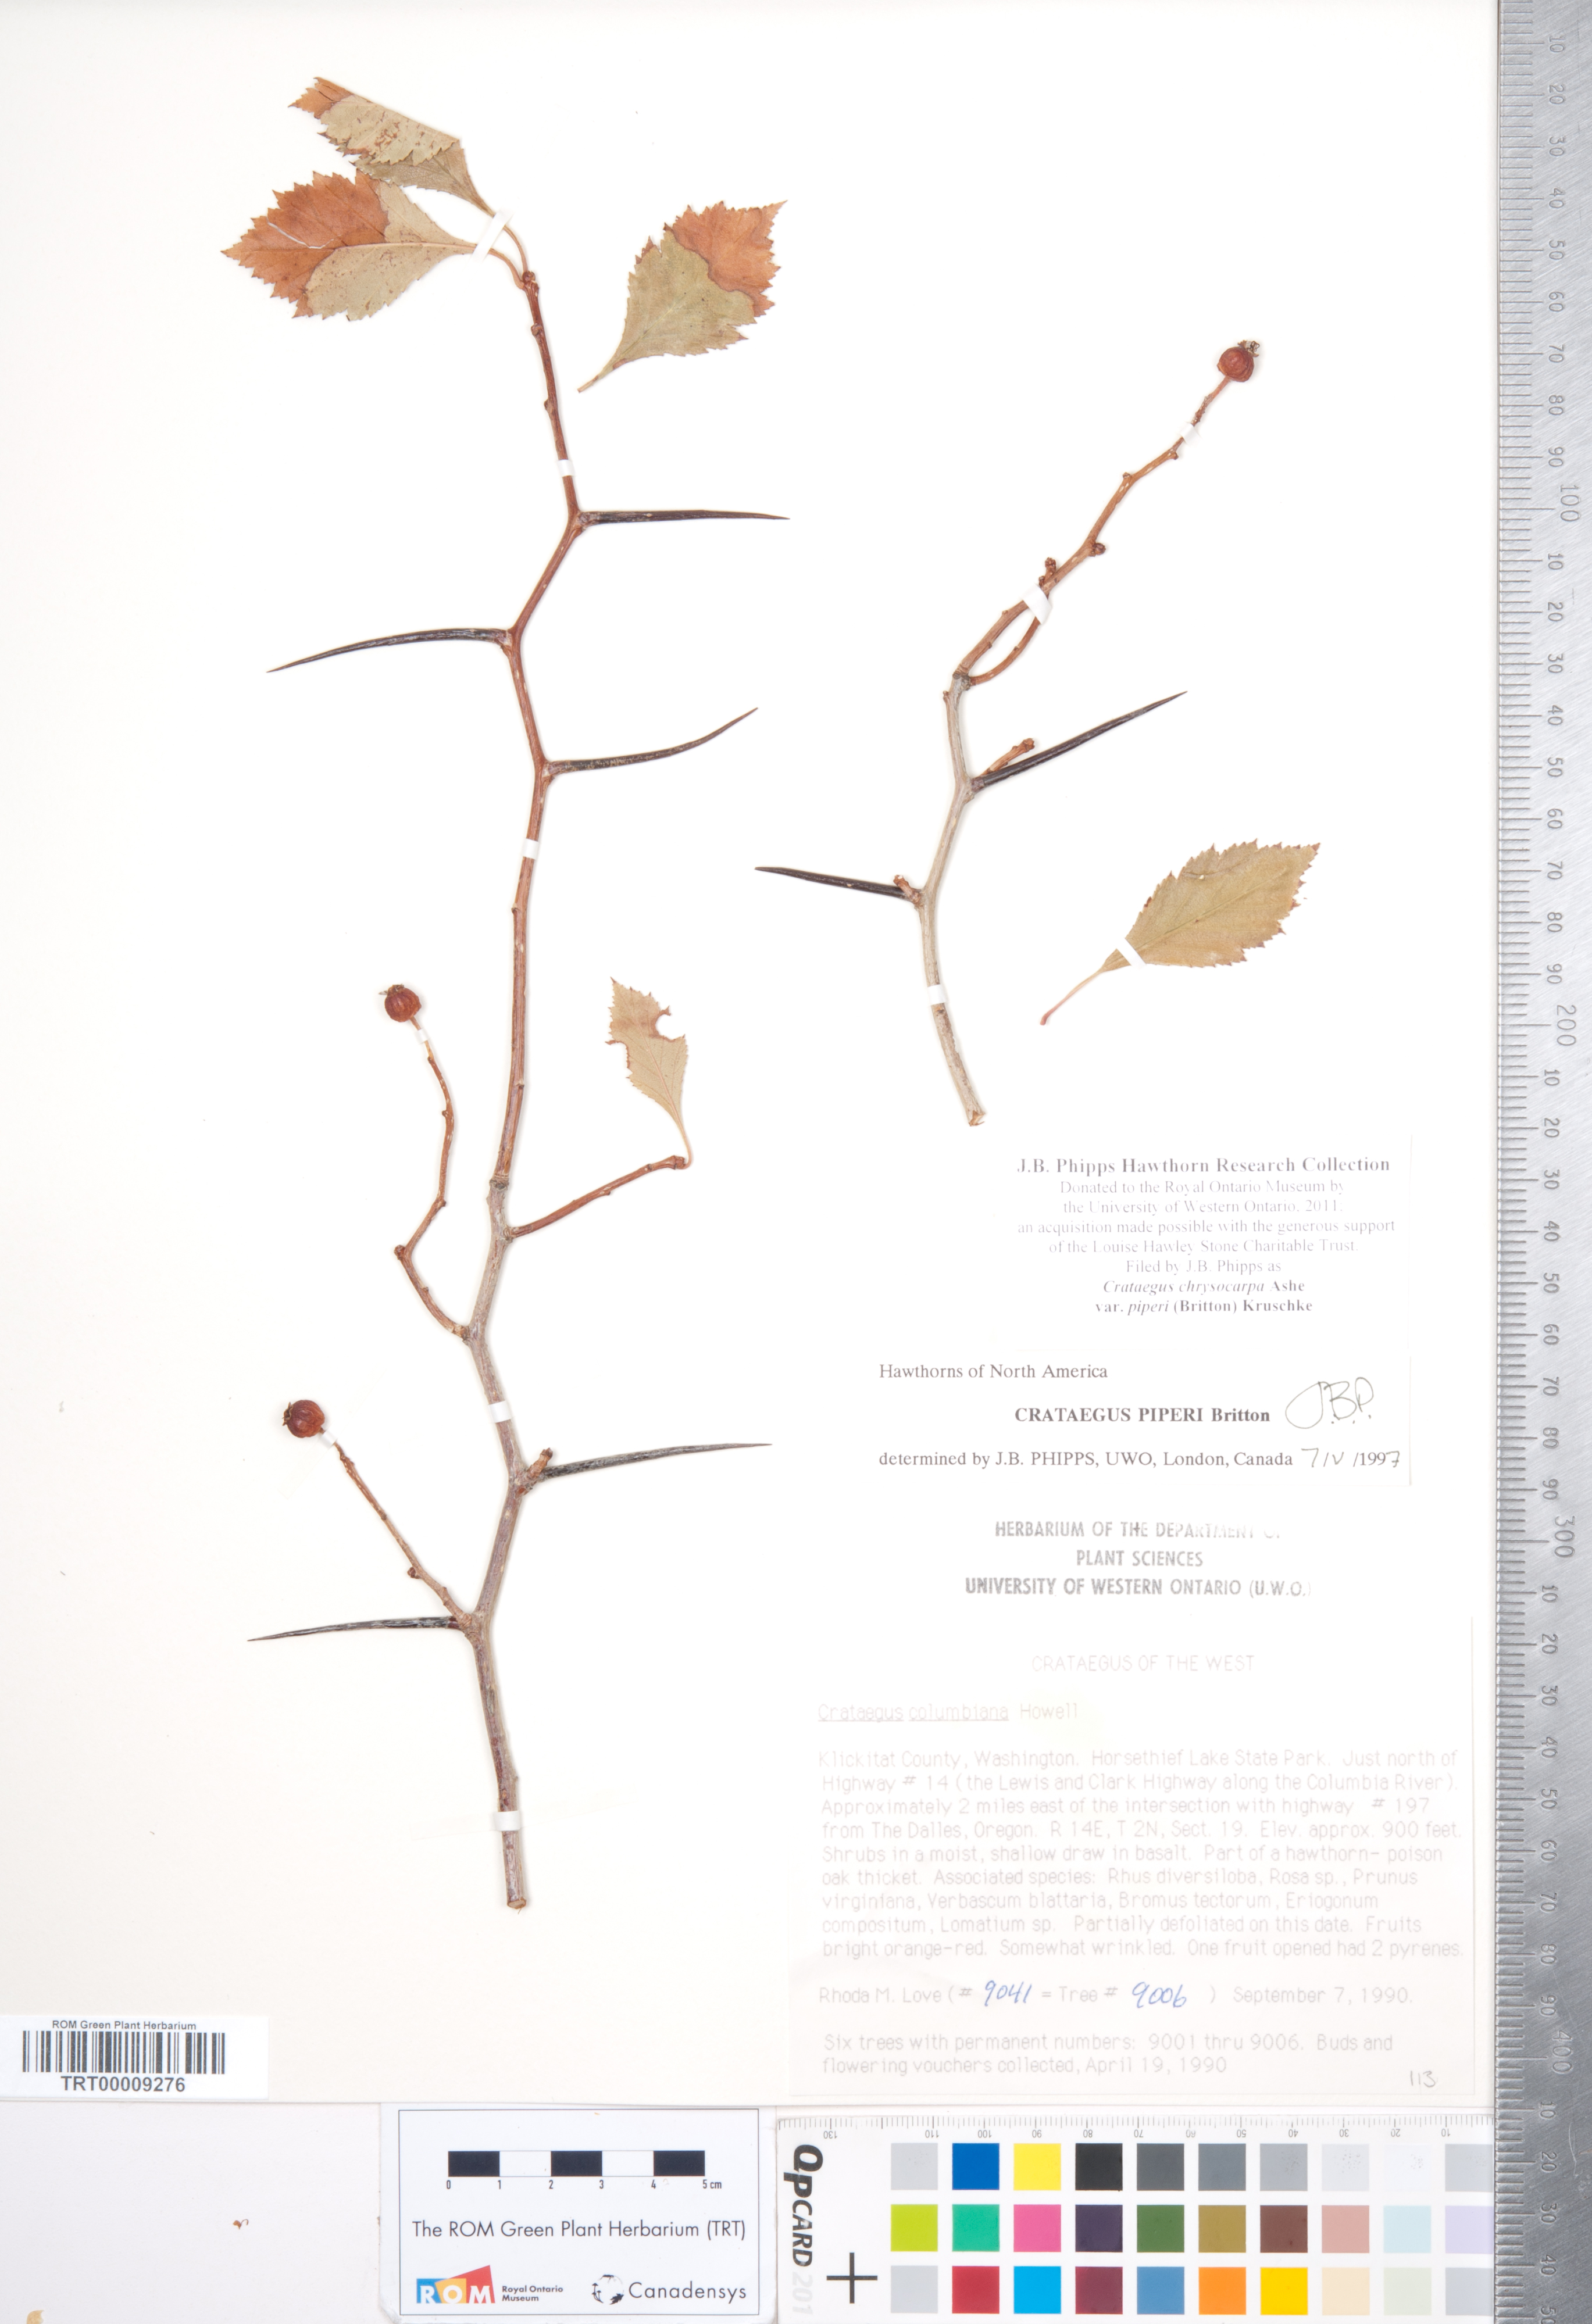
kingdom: Plantae
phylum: Tracheophyta
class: Magnoliopsida
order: Rosales
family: Rosaceae
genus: Crataegus
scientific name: Crataegus piperi
